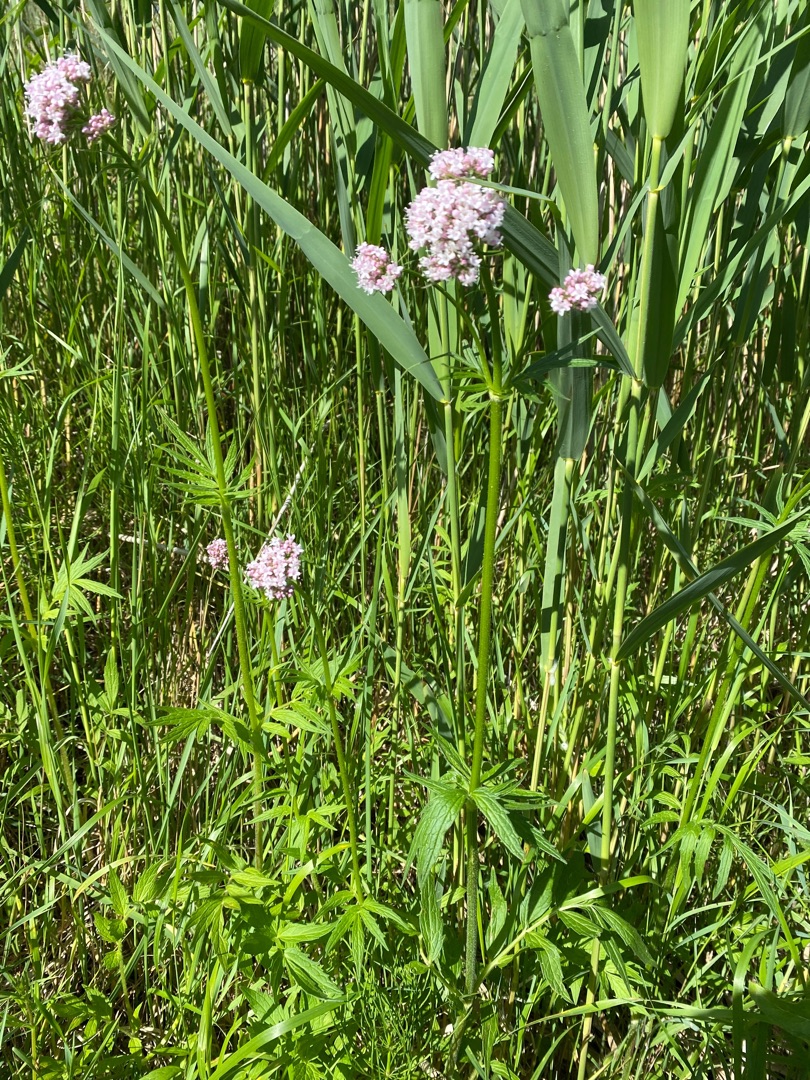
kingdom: Plantae
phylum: Tracheophyta
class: Magnoliopsida
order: Dipsacales
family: Caprifoliaceae
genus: Valeriana
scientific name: Valeriana
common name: Baldrianslægten
